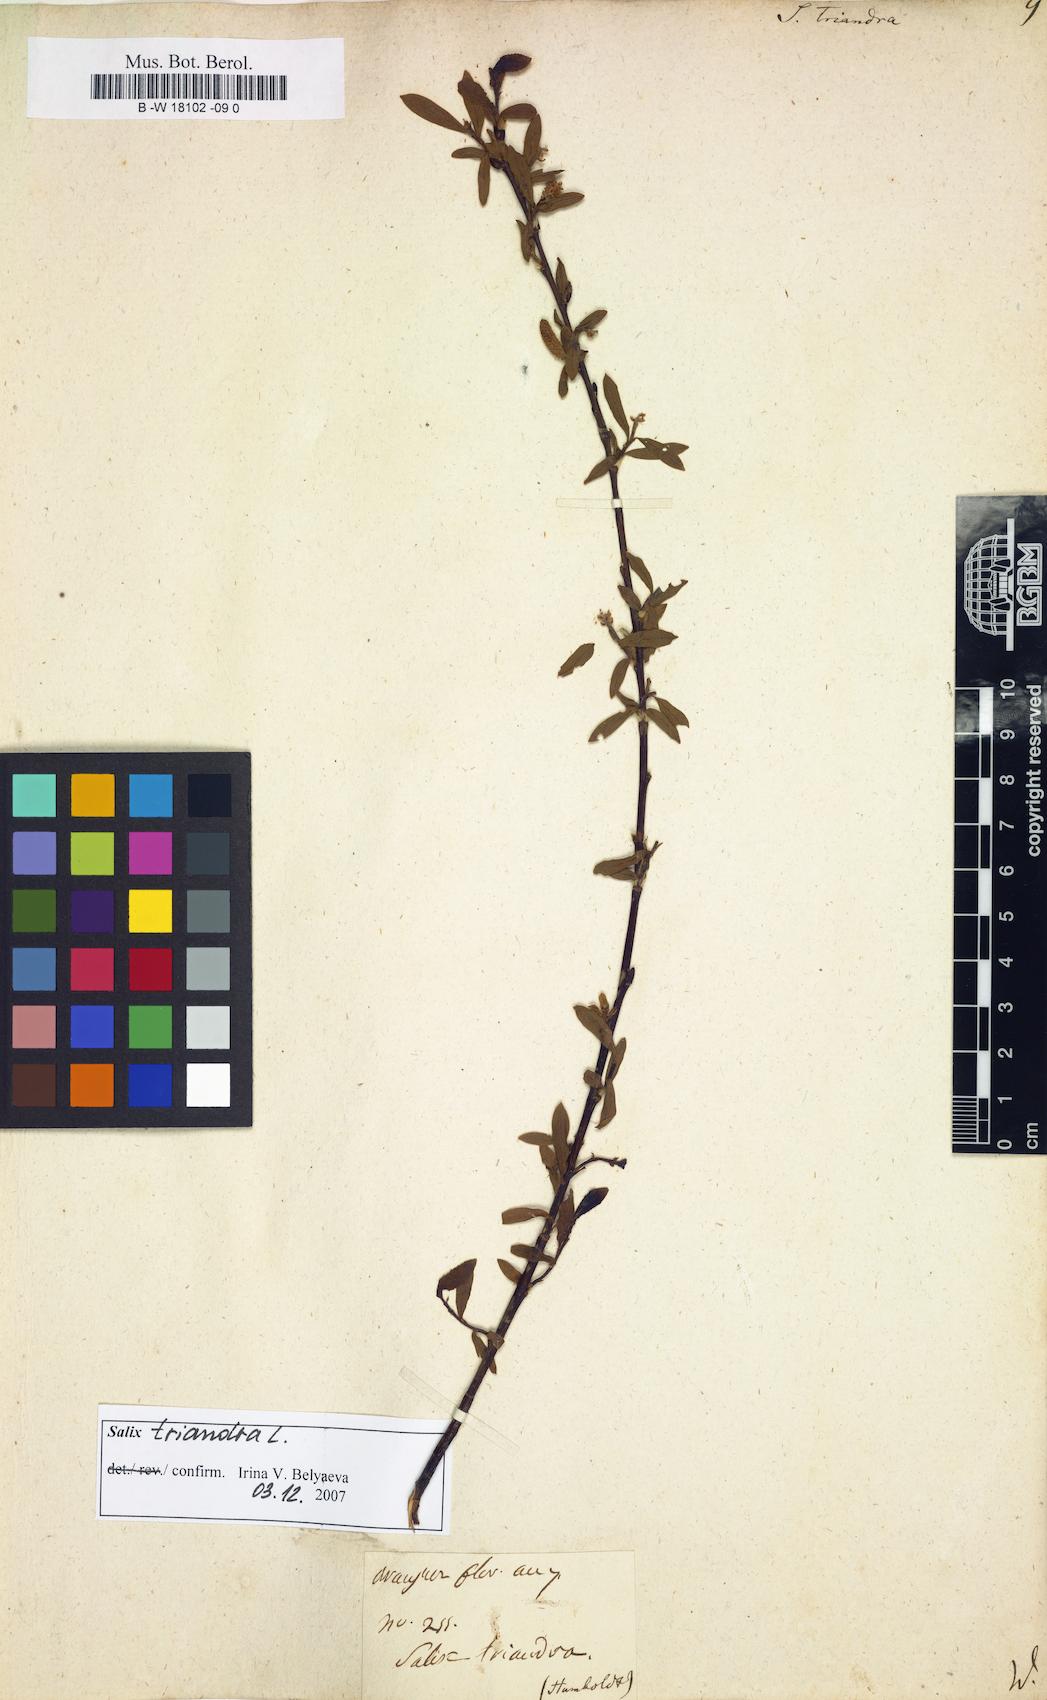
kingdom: Plantae
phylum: Tracheophyta
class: Magnoliopsida
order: Malpighiales
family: Salicaceae
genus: Salix
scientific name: Salix triandra
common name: Almond willow
